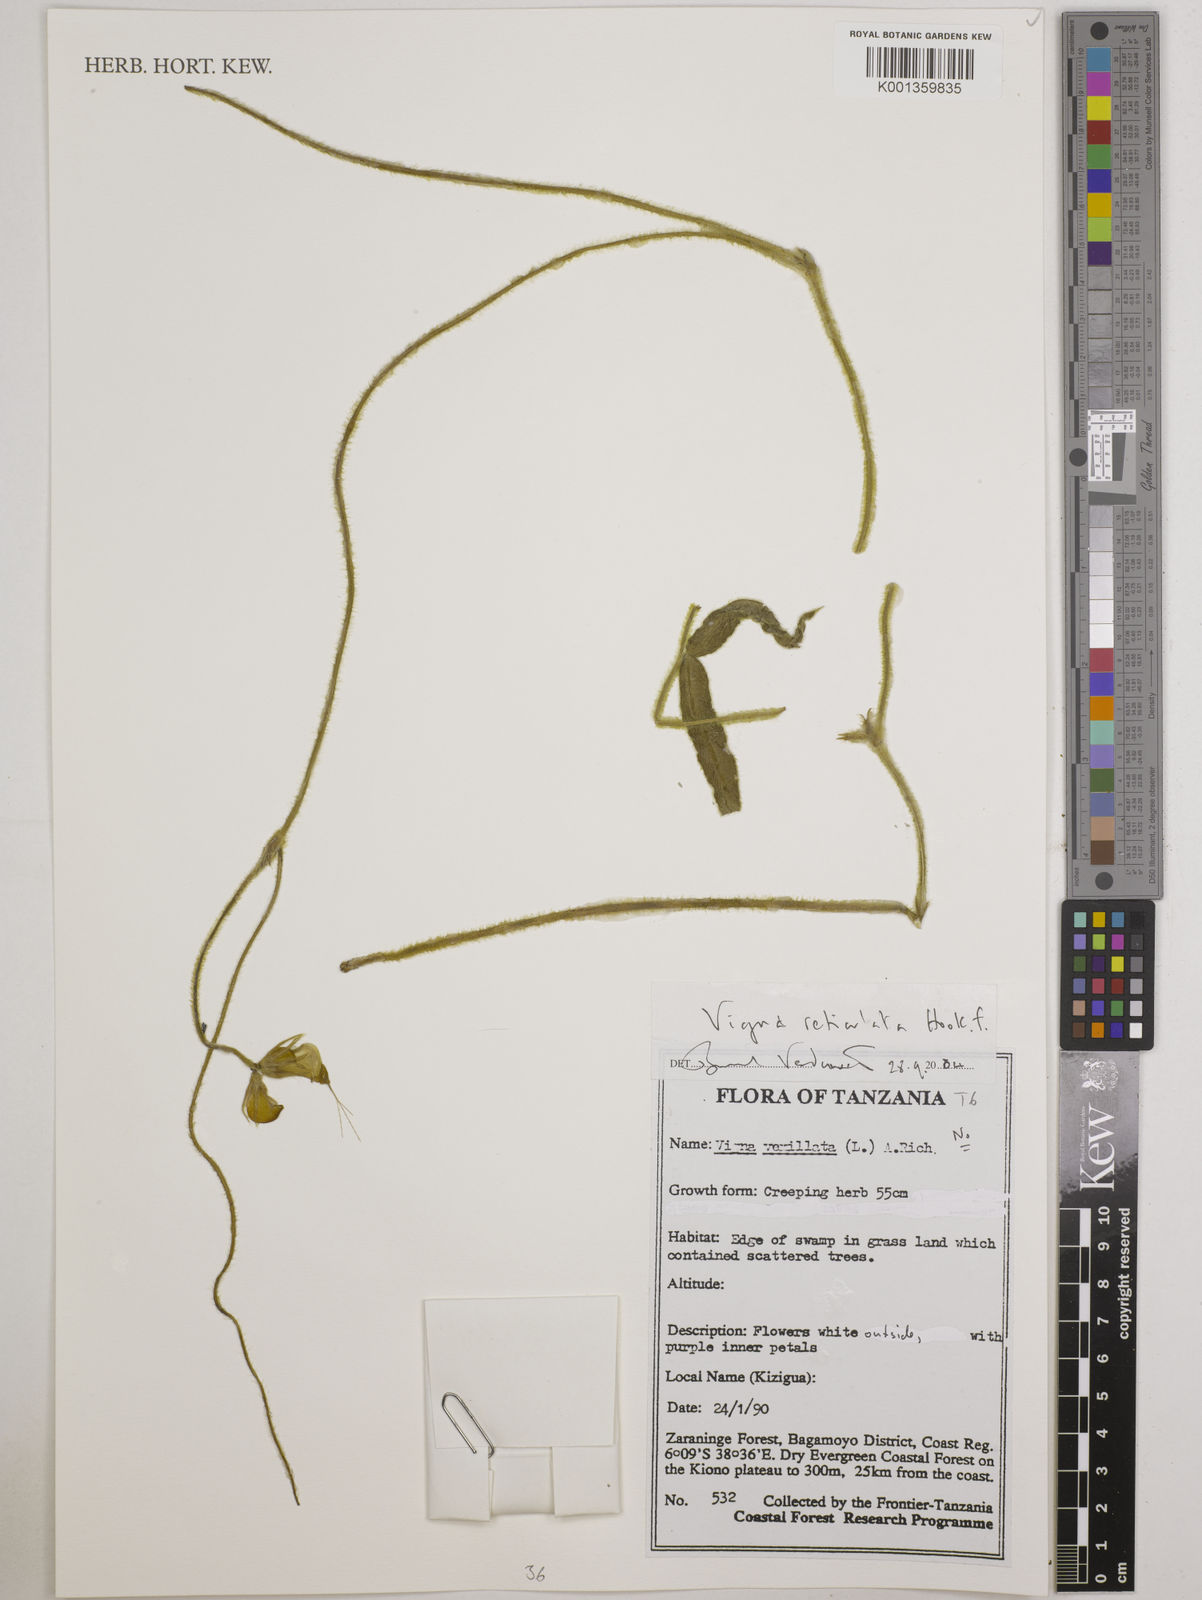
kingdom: Plantae
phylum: Tracheophyta
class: Magnoliopsida
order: Fabales
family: Fabaceae
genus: Vigna
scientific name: Vigna reticulata
